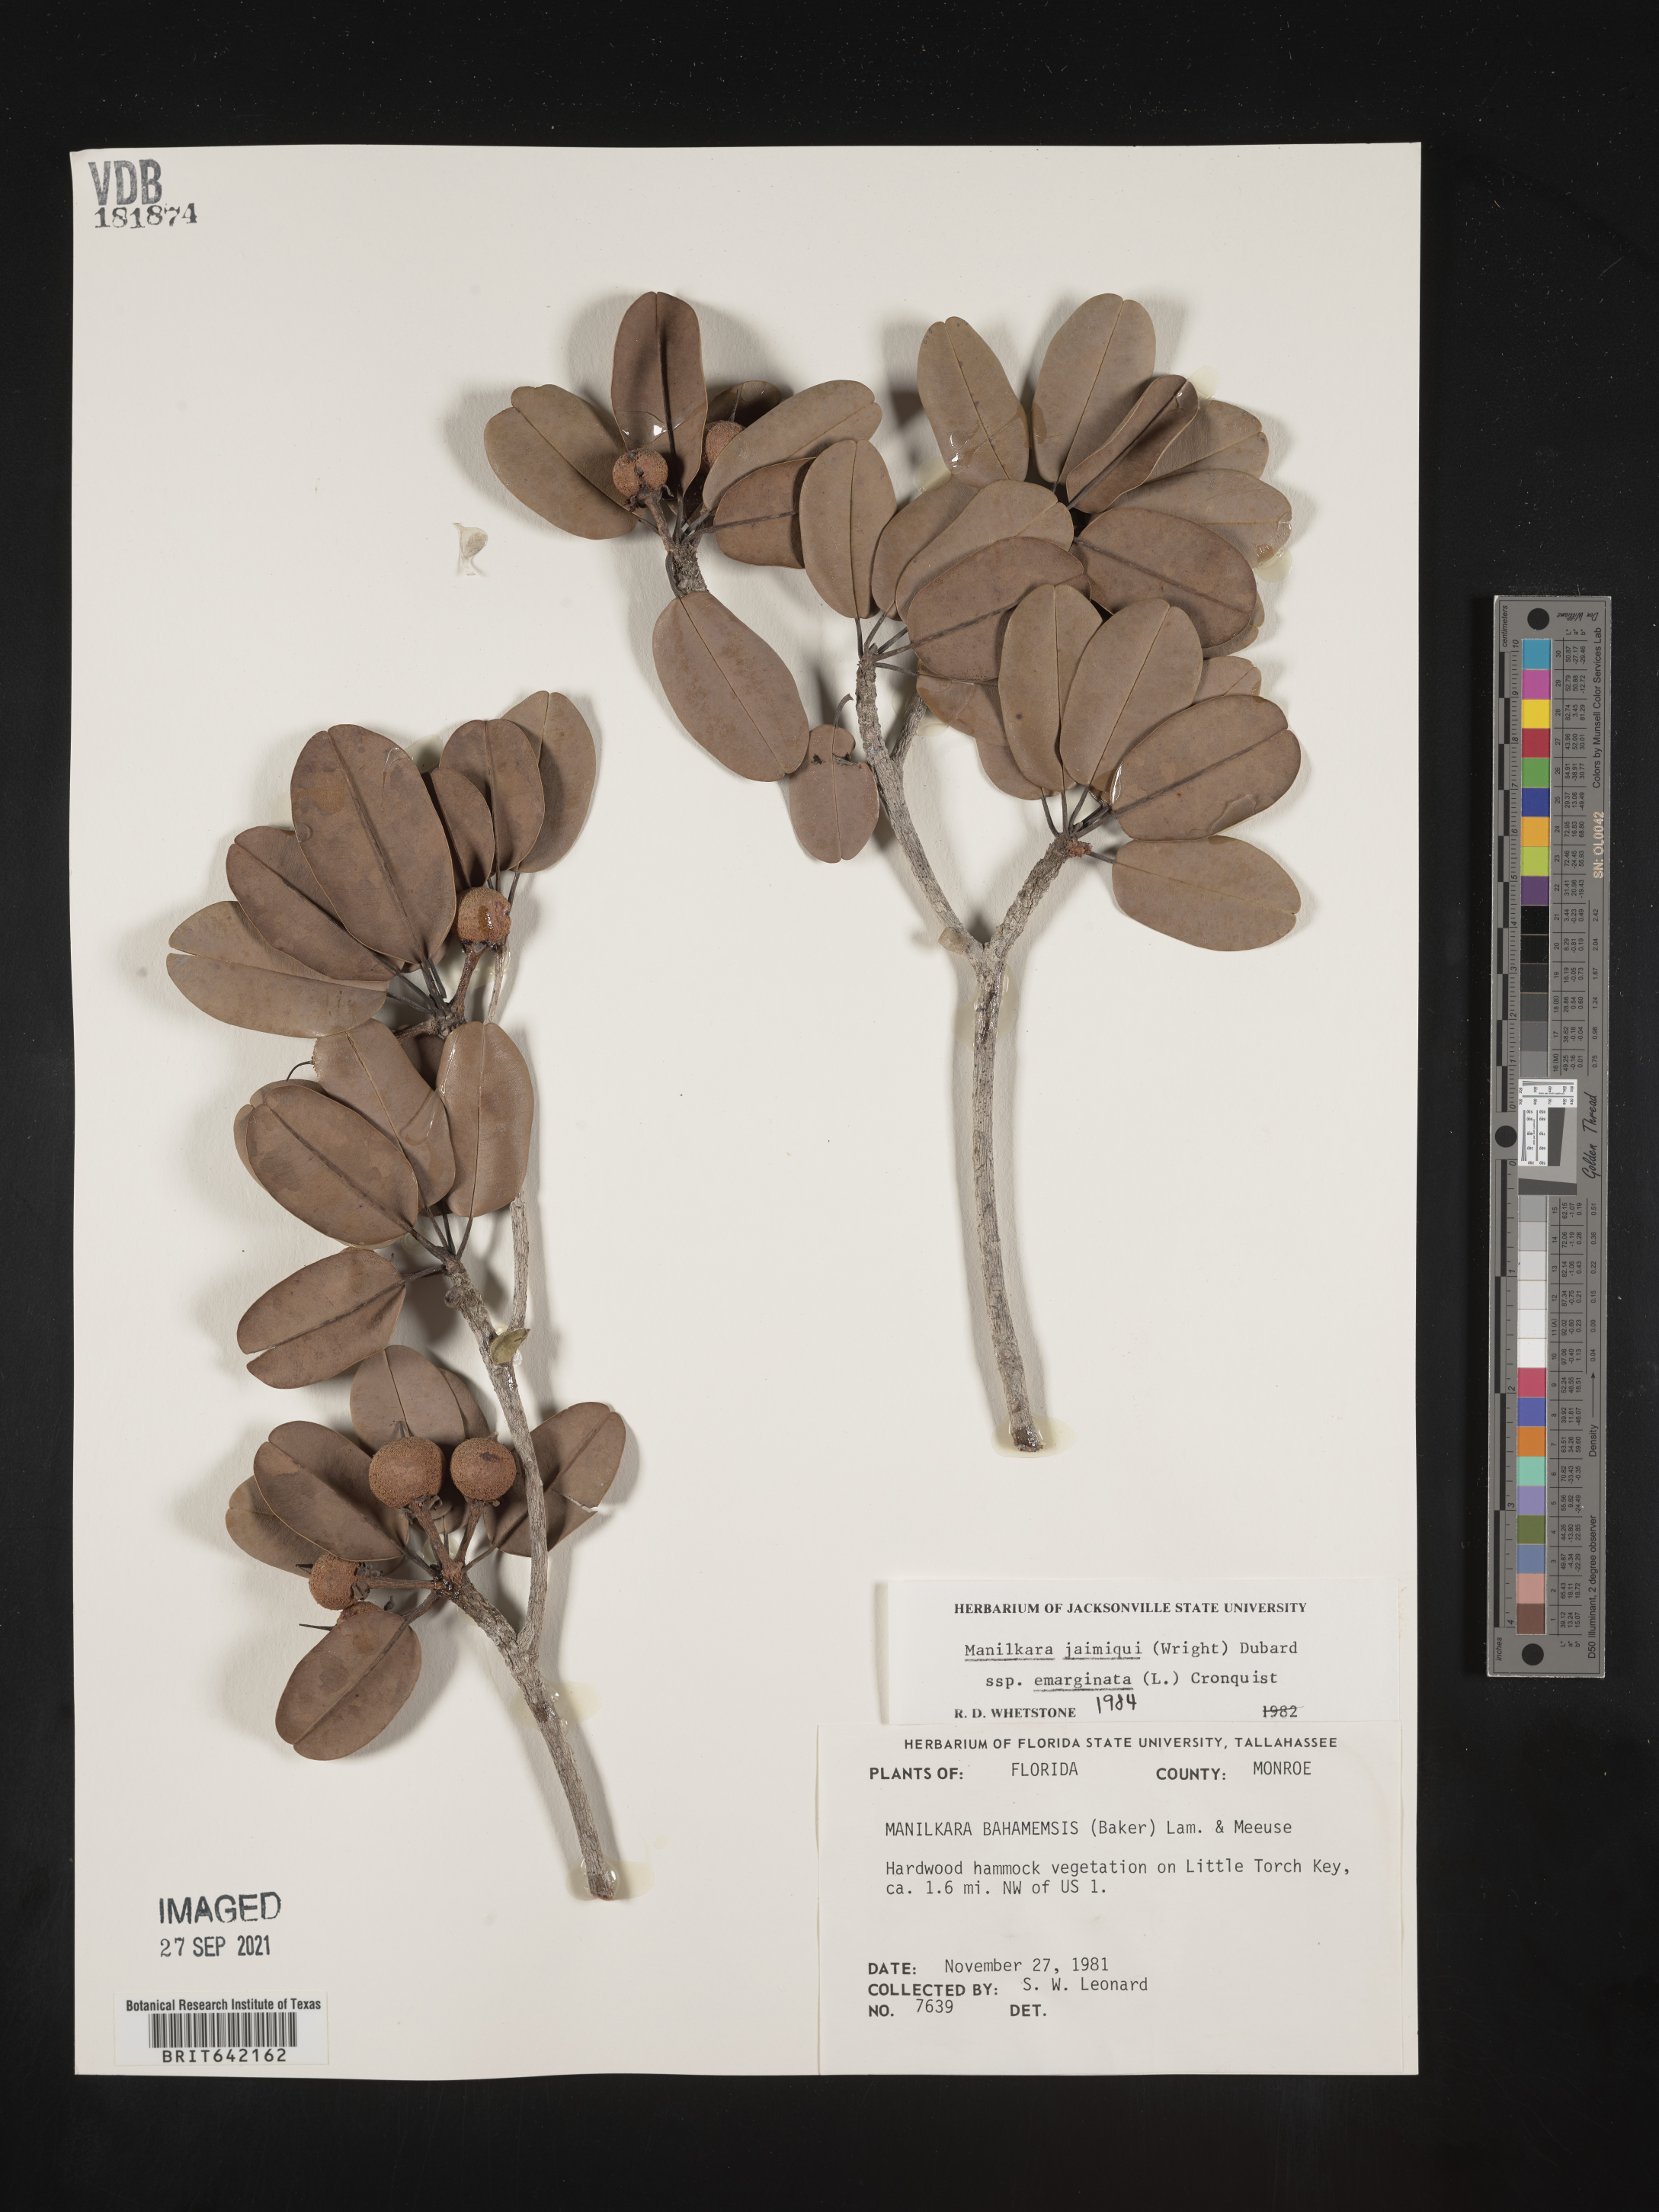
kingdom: Plantae
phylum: Tracheophyta
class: Magnoliopsida
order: Ericales
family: Sapotaceae
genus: Manilkara
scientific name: Manilkara jaimiqui
